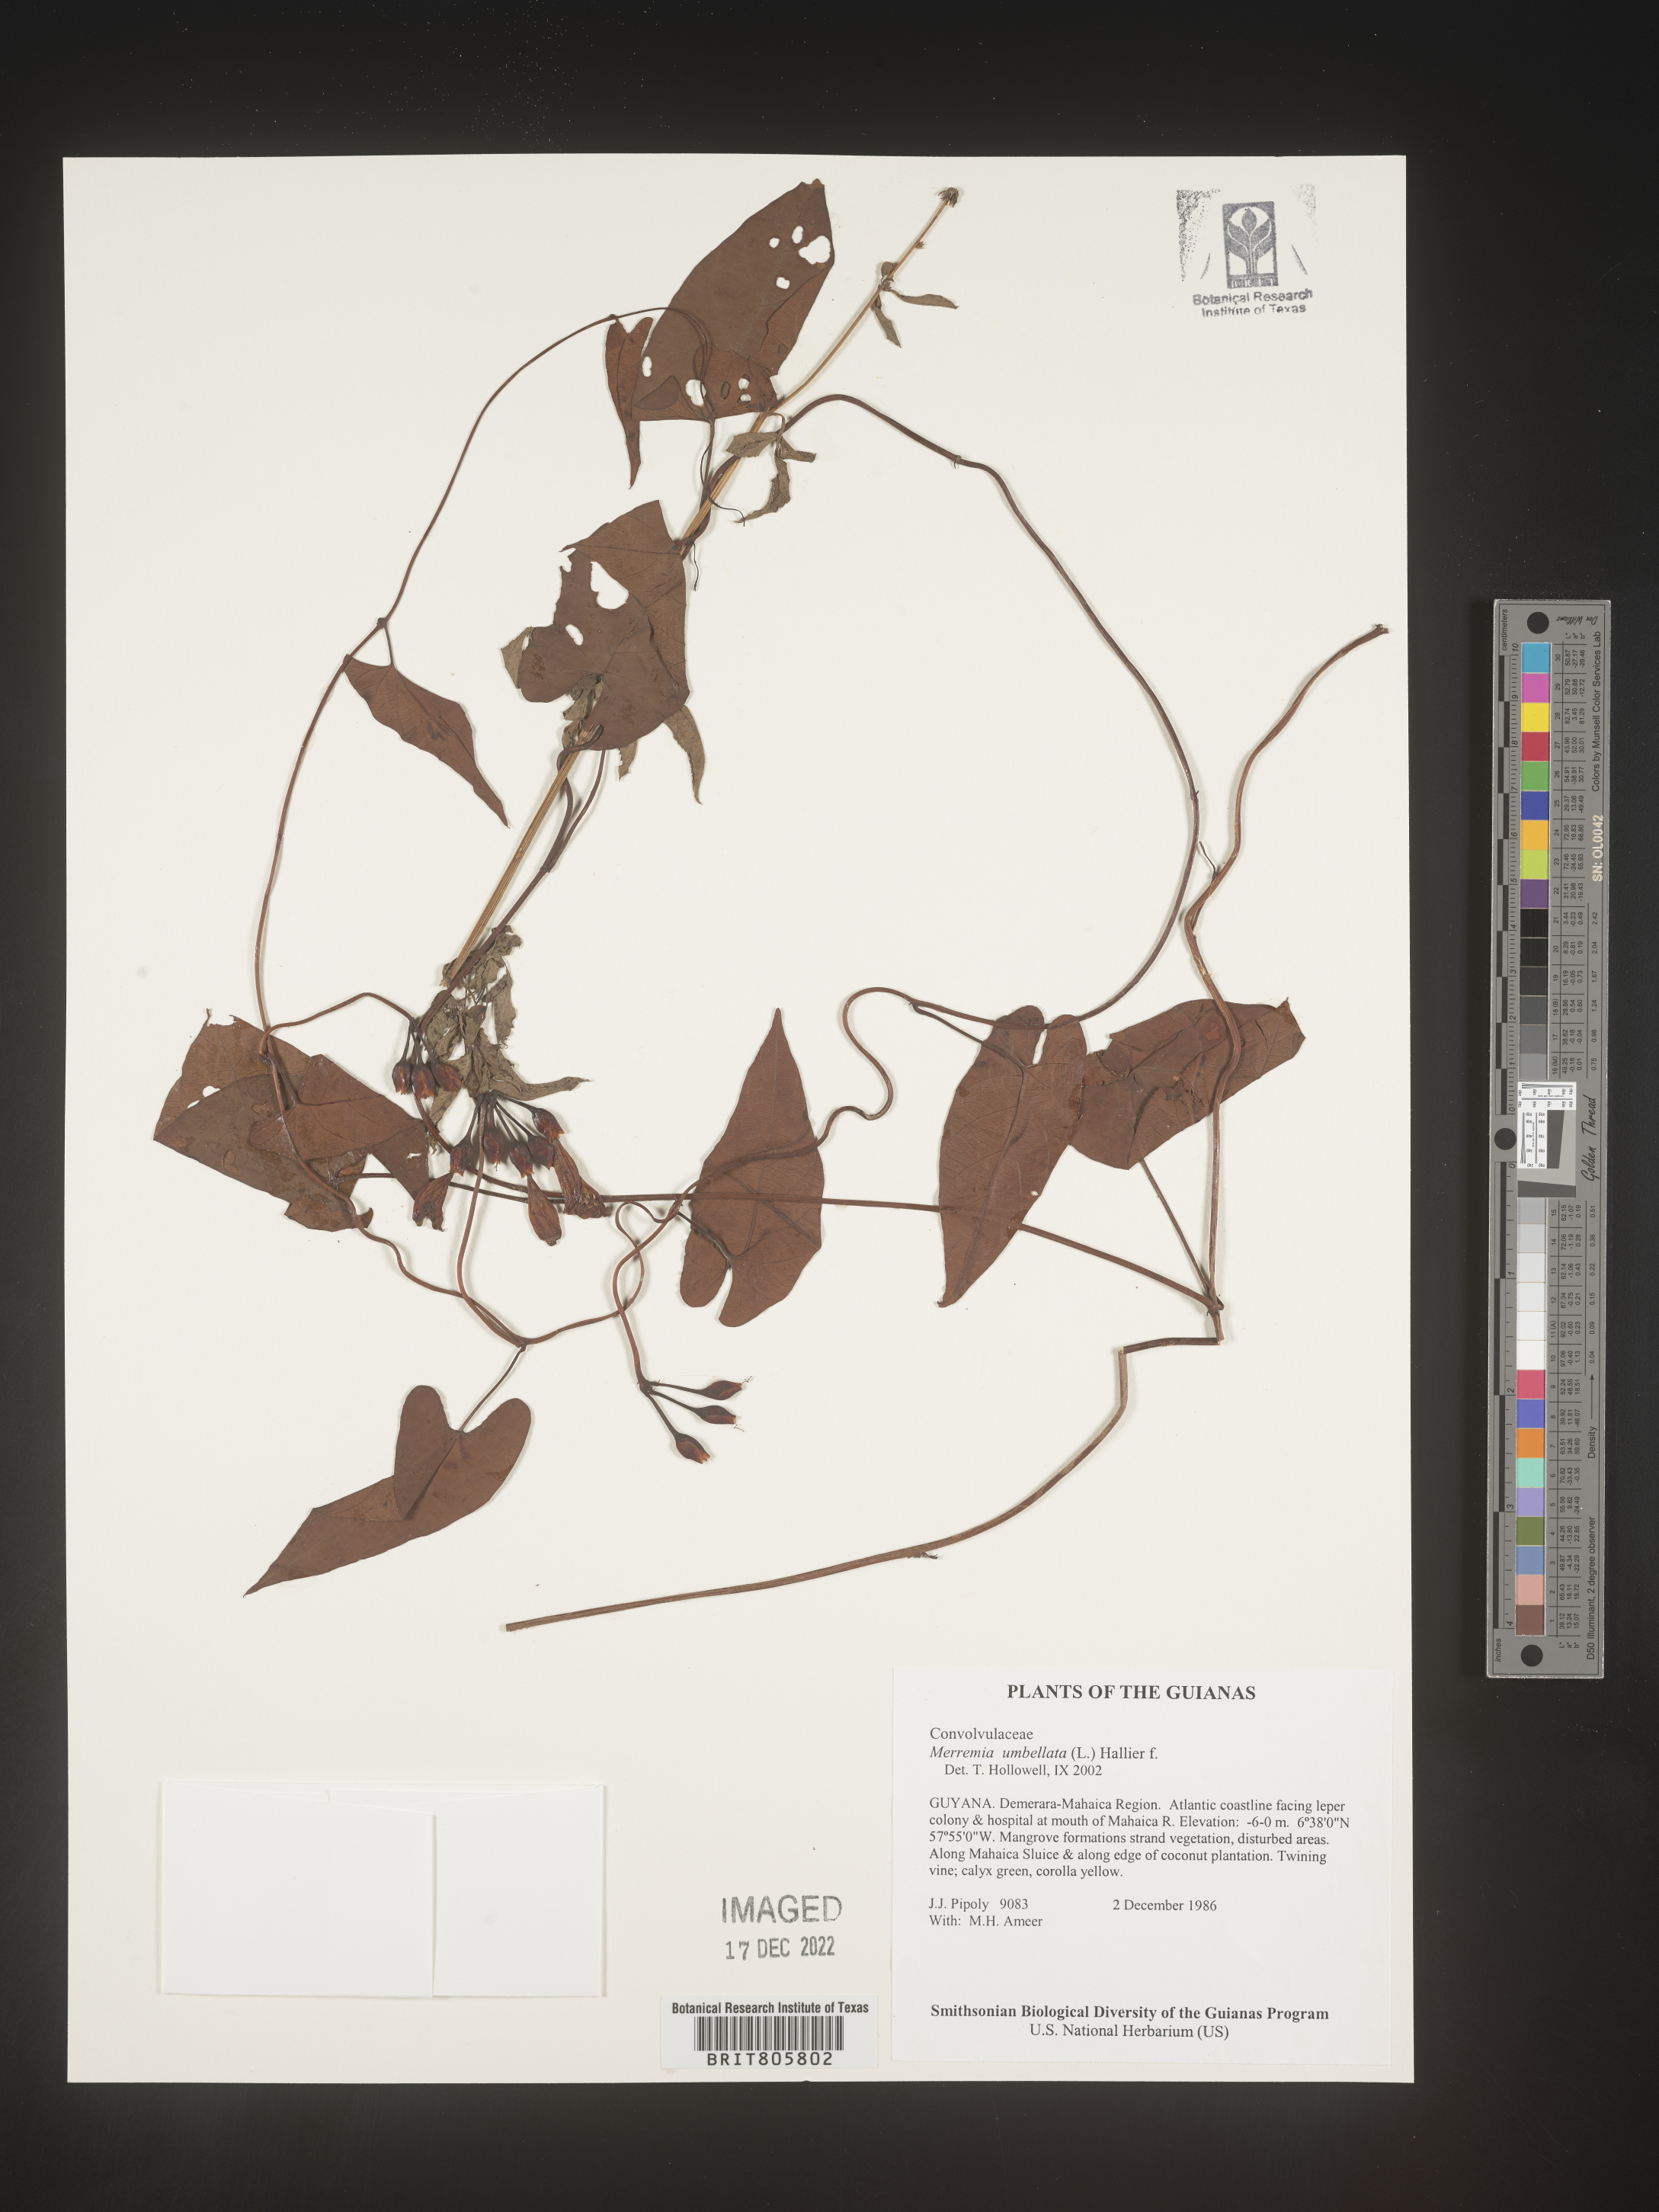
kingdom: Plantae
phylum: Tracheophyta
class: Magnoliopsida
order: Solanales
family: Convolvulaceae
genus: Merremia
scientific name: Merremia
